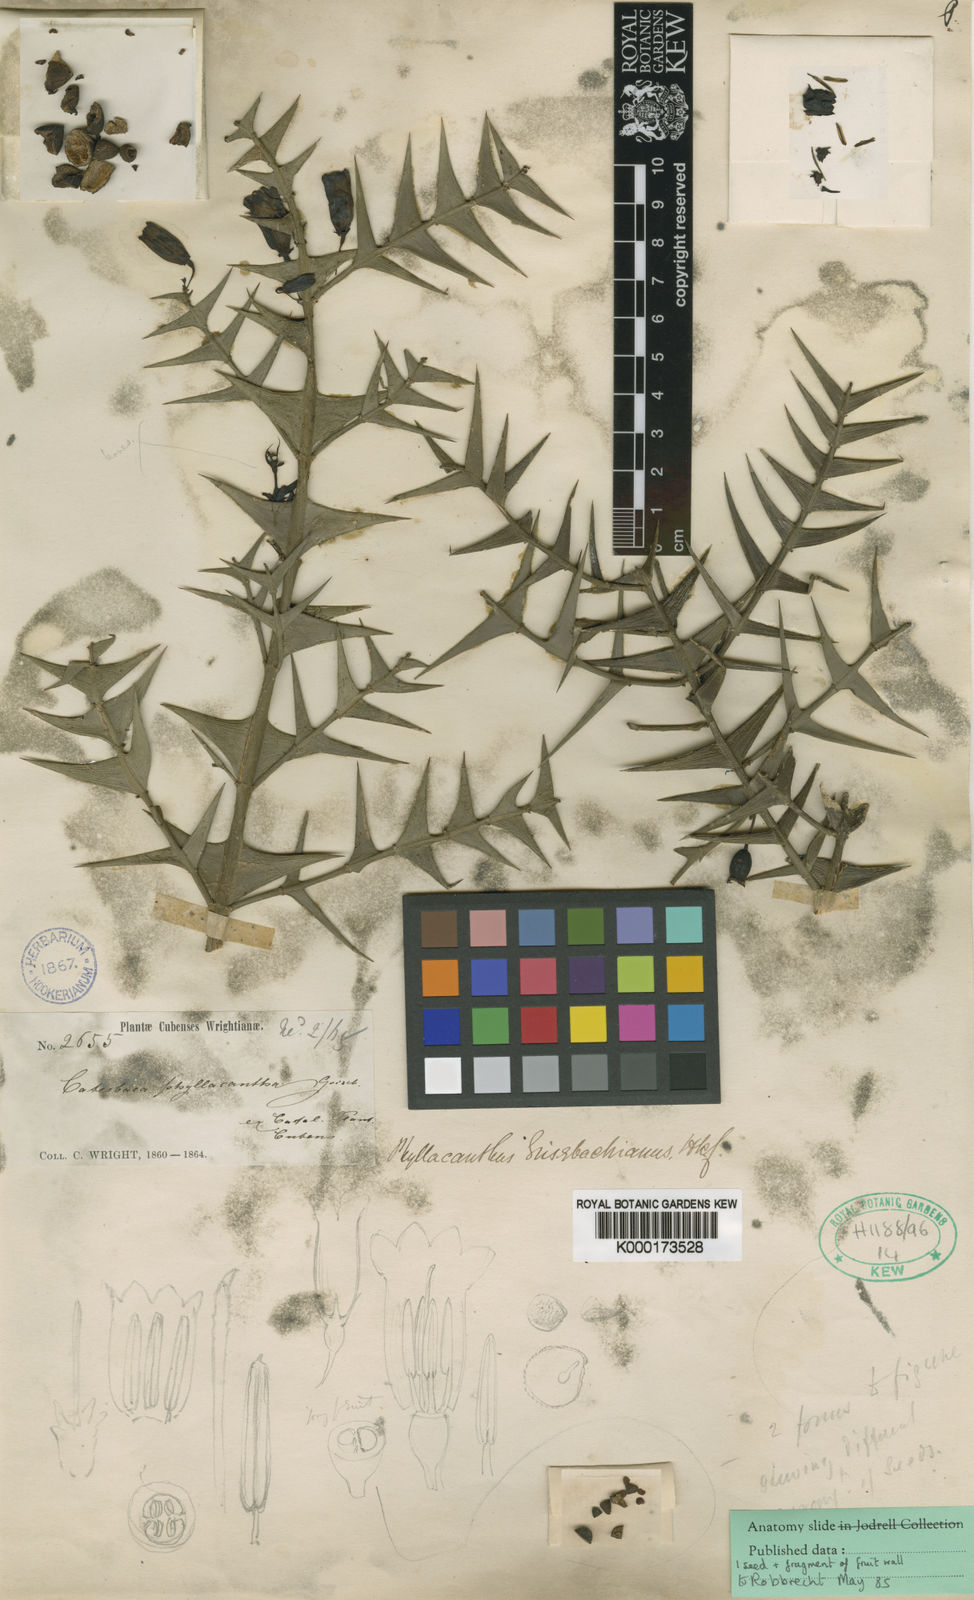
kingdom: Plantae
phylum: Tracheophyta
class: Magnoliopsida
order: Gentianales
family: Rubiaceae
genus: Catesbaea
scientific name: Catesbaea phyllacantha
